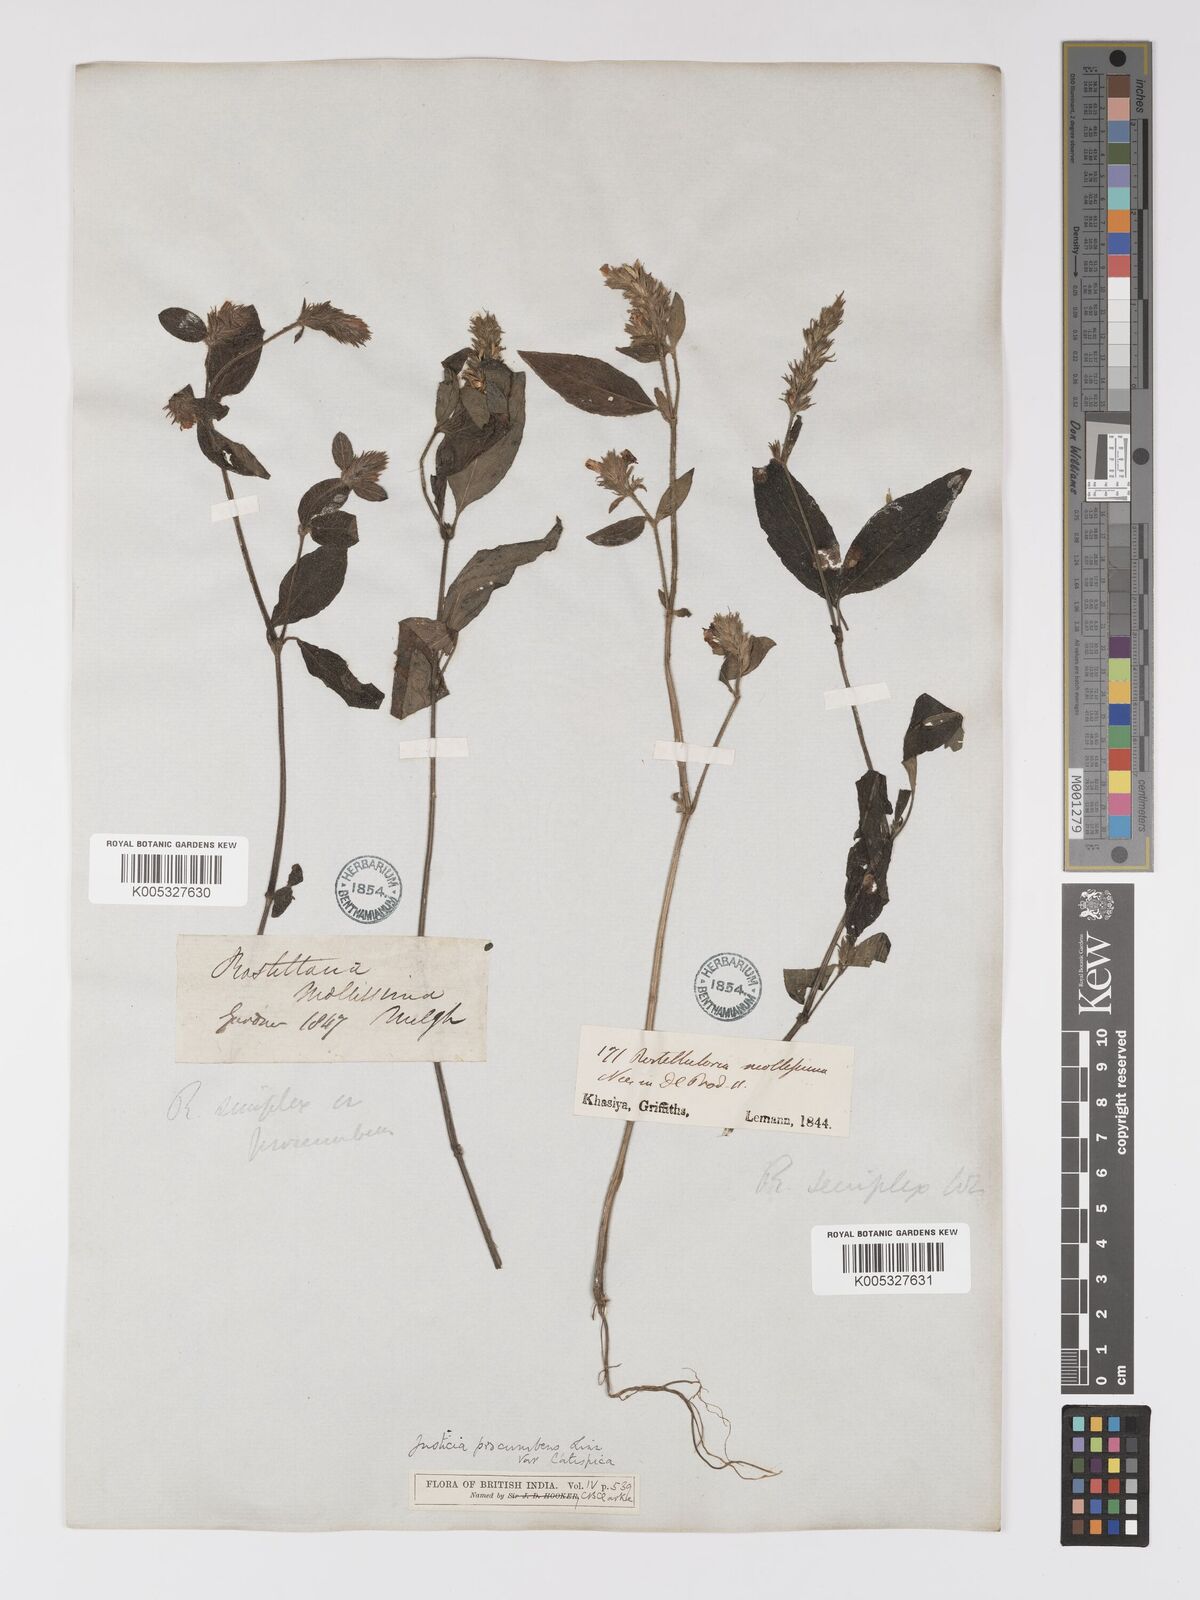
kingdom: Plantae
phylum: Tracheophyta
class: Magnoliopsida
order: Lamiales
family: Acanthaceae
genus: Rostellularia
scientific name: Rostellularia latispica
